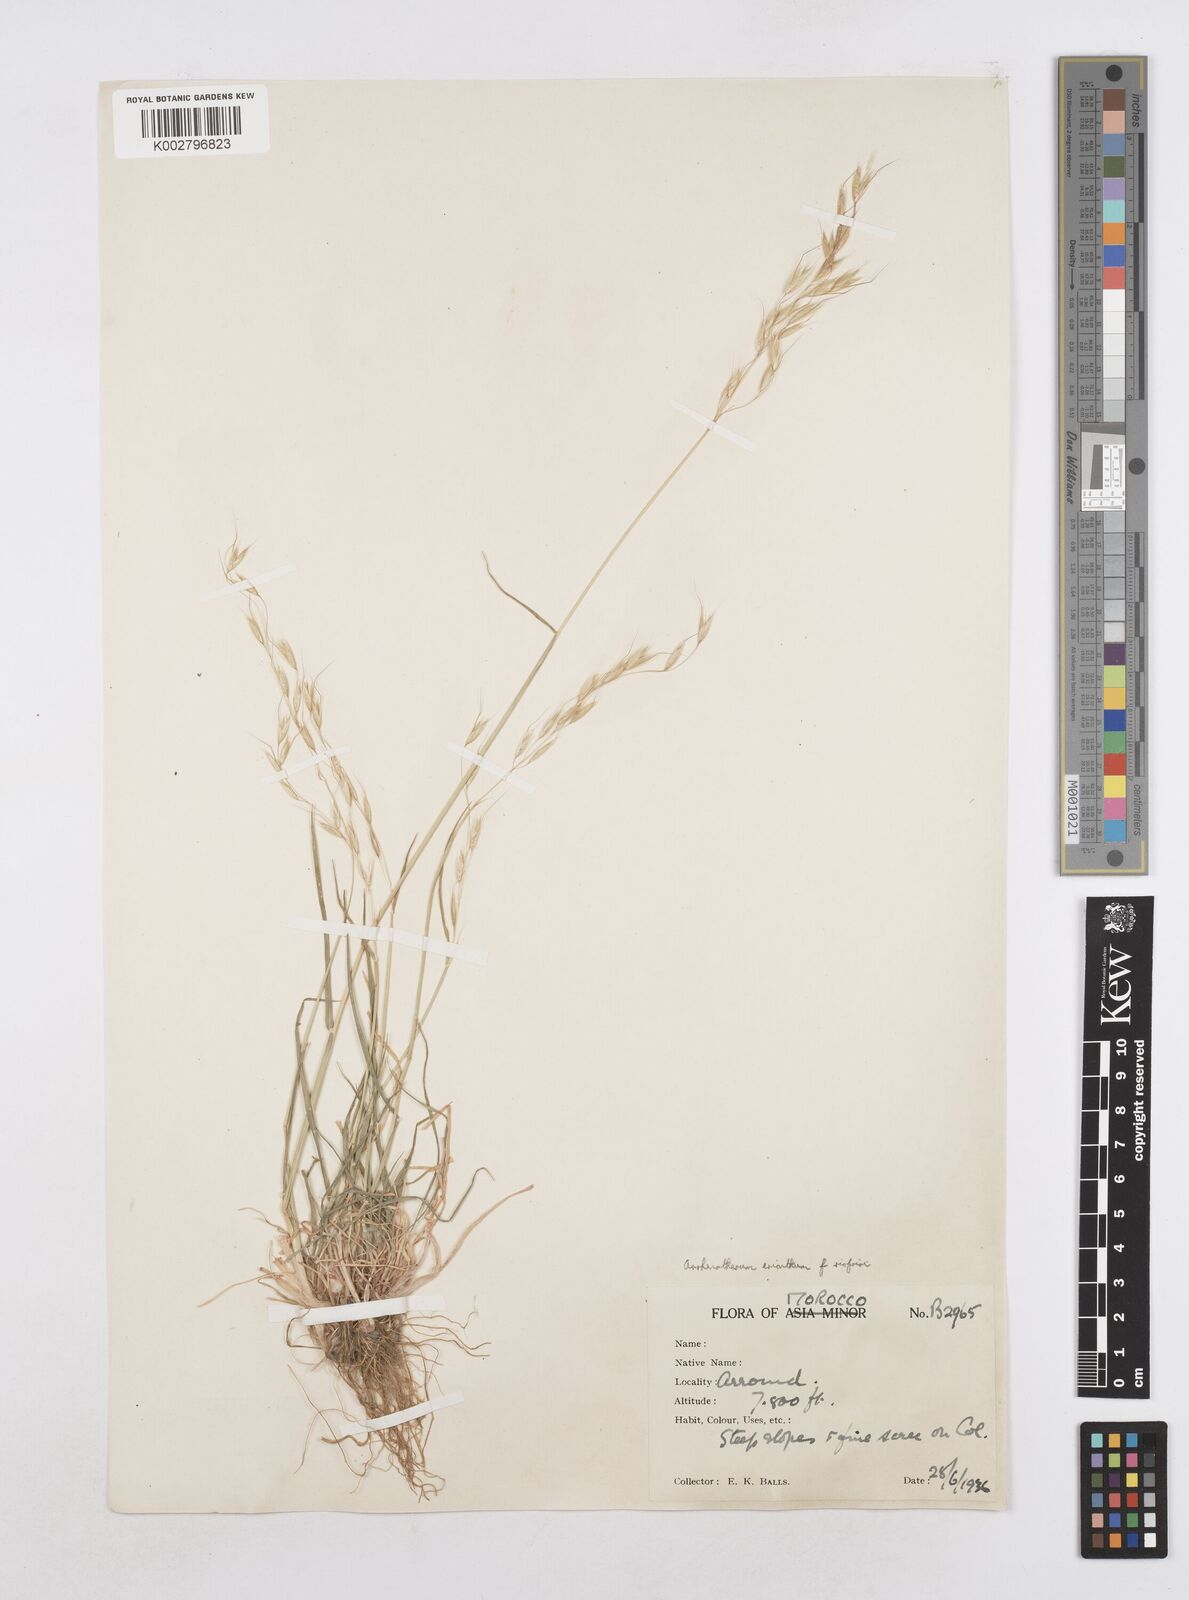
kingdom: Plantae
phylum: Tracheophyta
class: Liliopsida
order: Poales
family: Poaceae
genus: Arrhenatherum
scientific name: Arrhenatherum
